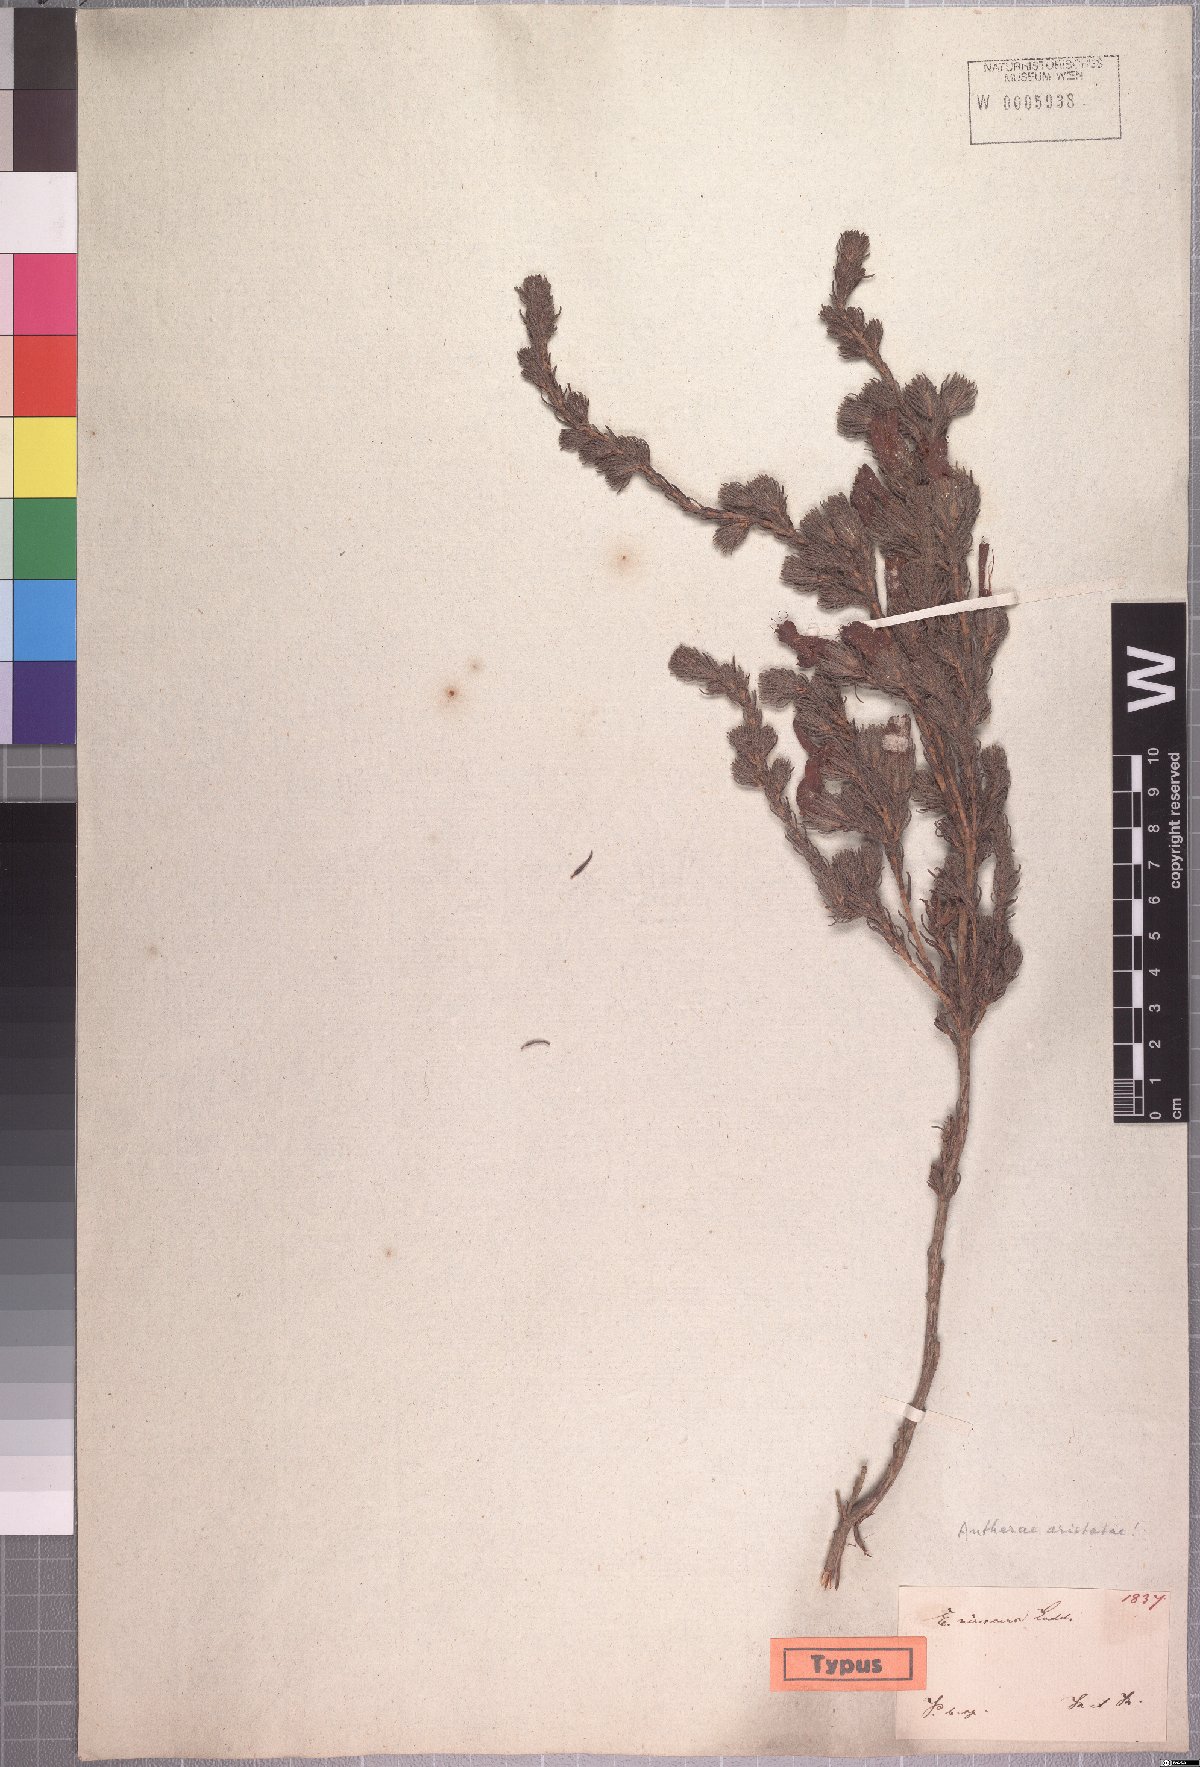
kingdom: Plantae
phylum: Tracheophyta
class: Magnoliopsida
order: Ericales
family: Ericaceae
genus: Erica
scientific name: Erica unicolor
